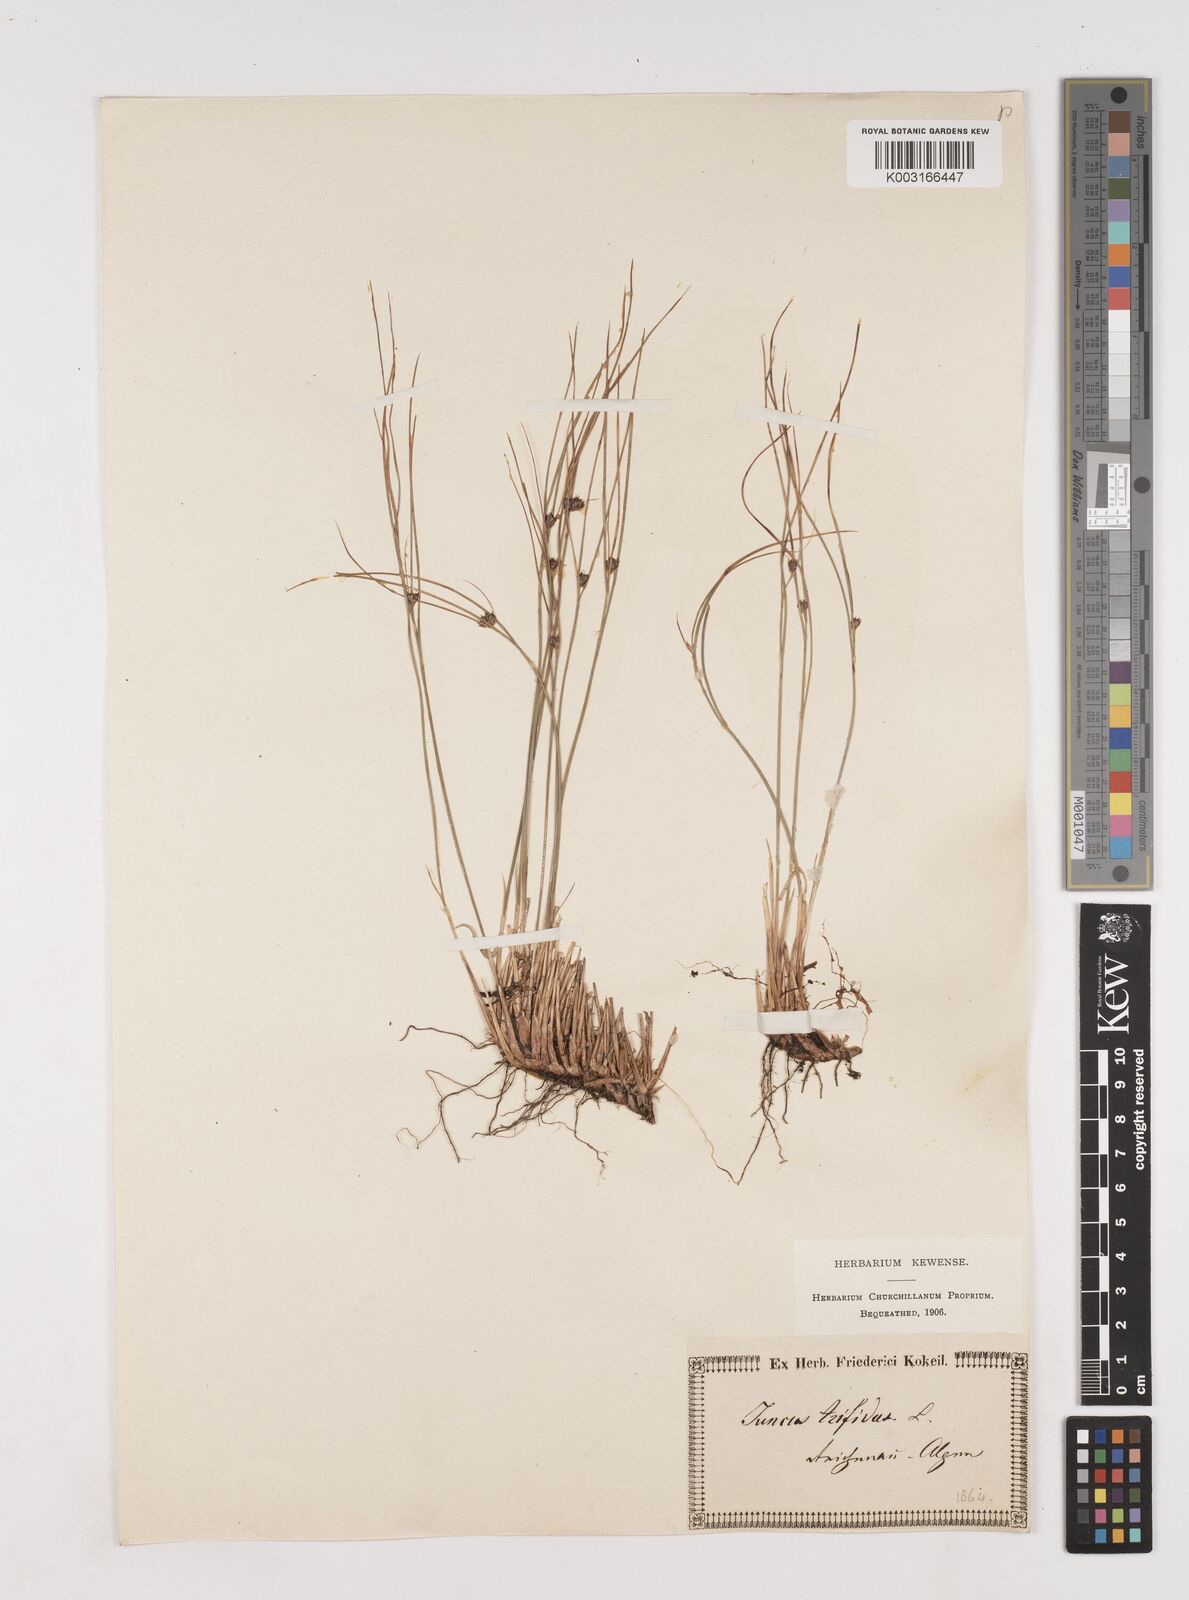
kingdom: Plantae
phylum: Tracheophyta
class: Liliopsida
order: Poales
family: Juncaceae
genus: Oreojuncus
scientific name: Oreojuncus trifidus
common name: Highland rush
